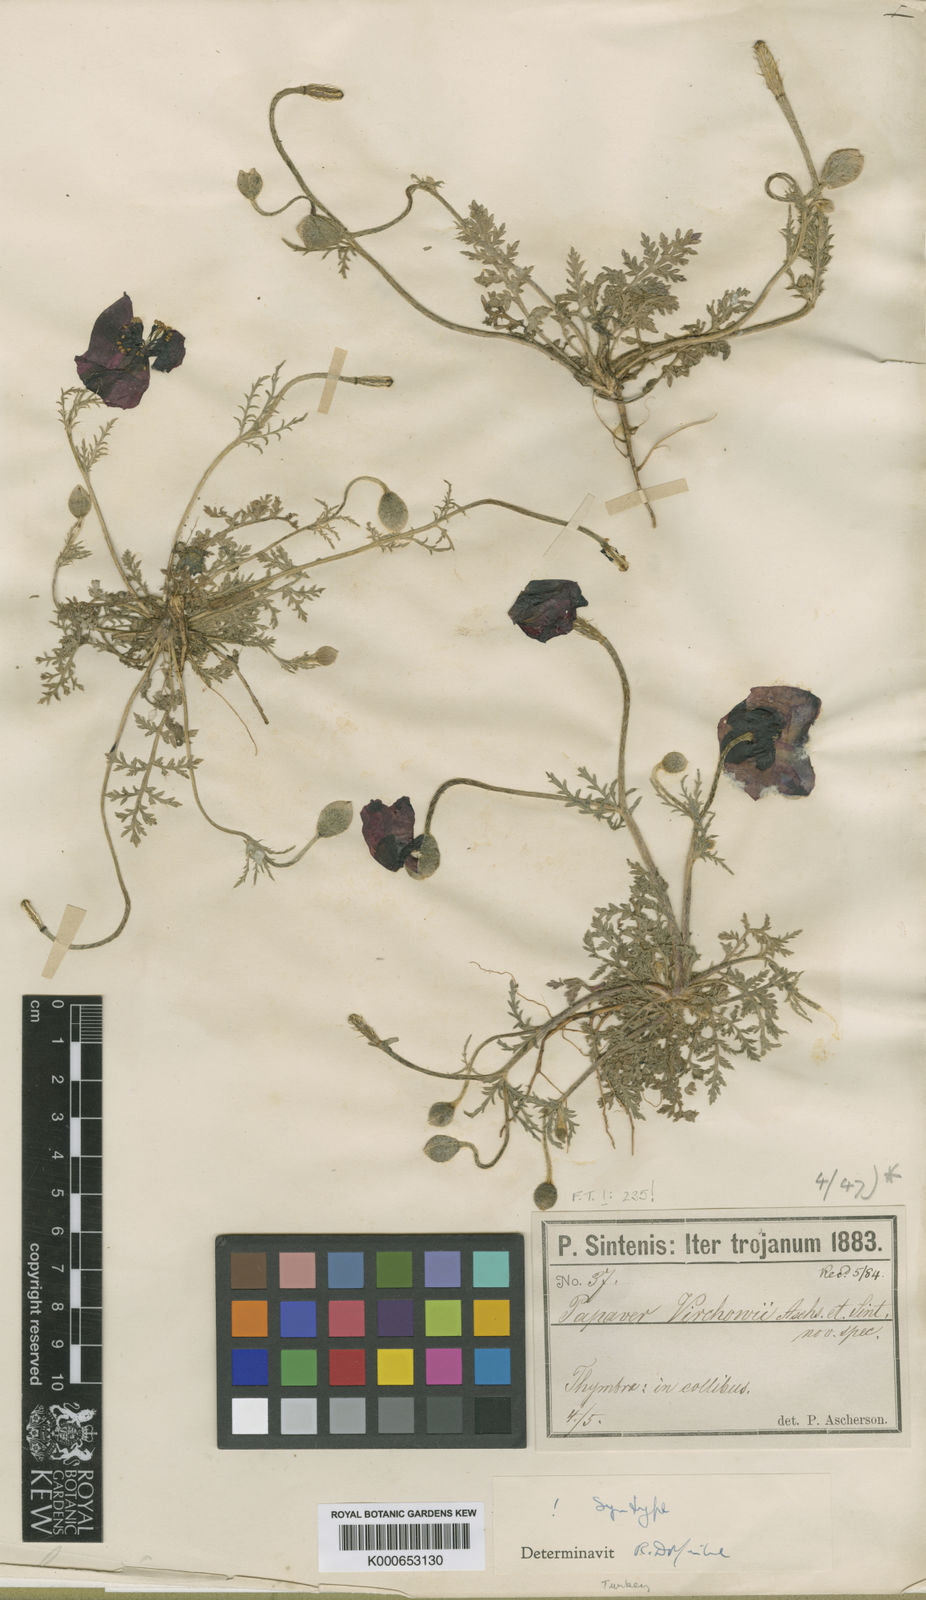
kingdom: Plantae
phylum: Tracheophyta
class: Magnoliopsida
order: Ranunculales
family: Papaveraceae
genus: Roemeria
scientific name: Roemeria virchowii
